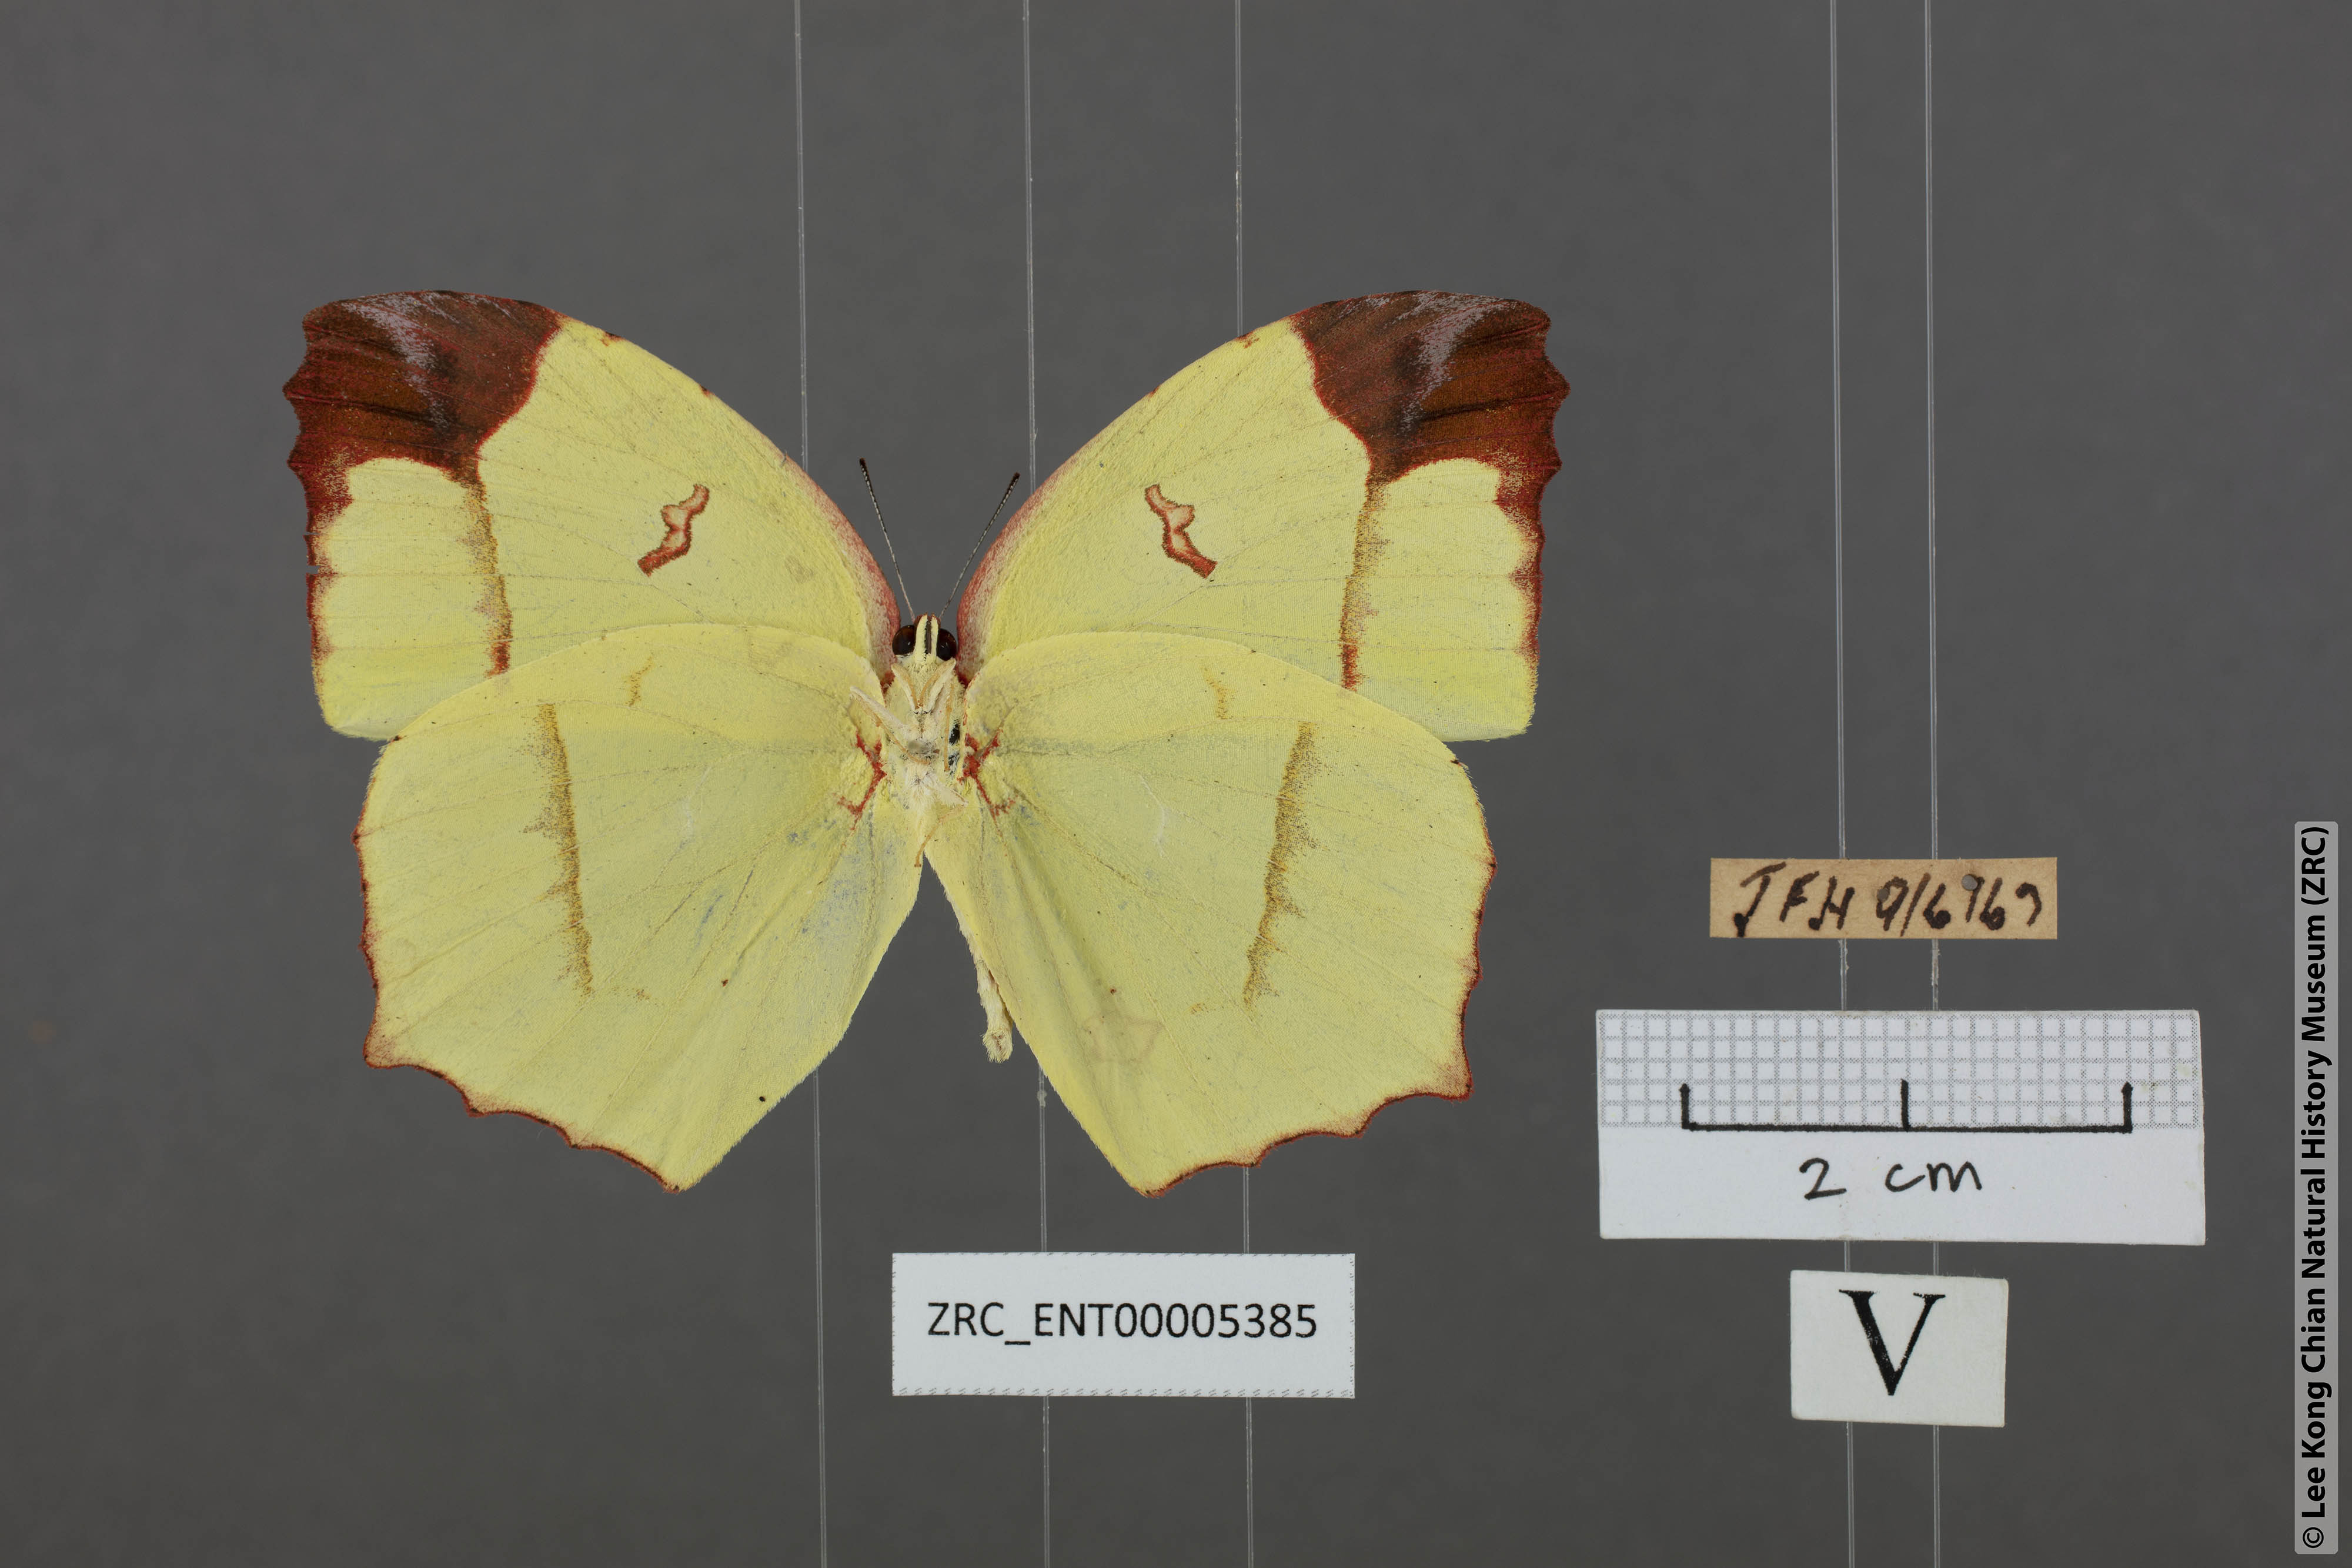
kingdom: Animalia
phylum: Arthropoda
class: Insecta
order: Lepidoptera
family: Pieridae
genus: Dercas
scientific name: Dercas verhuelli
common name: Tailed sulphur
